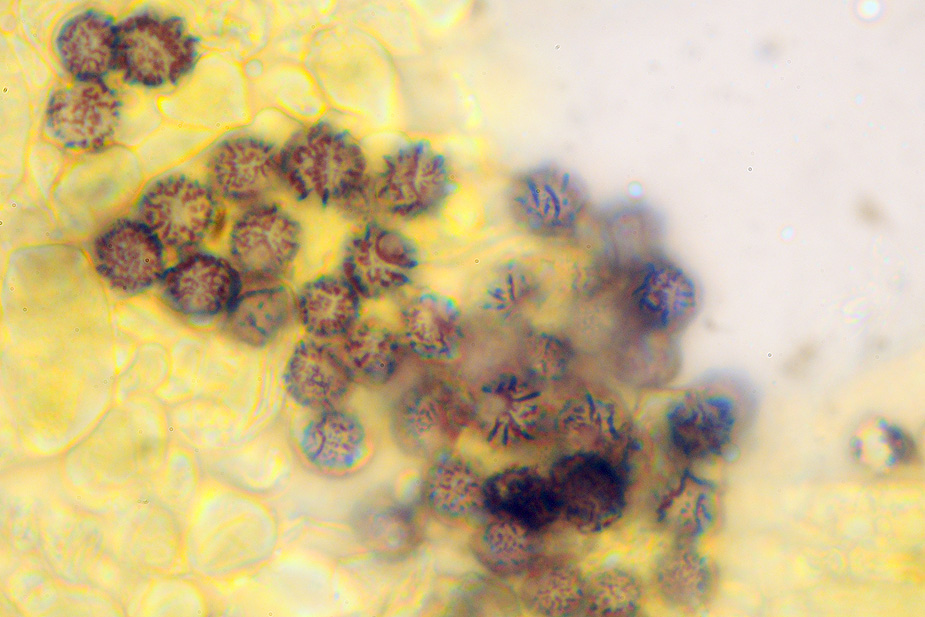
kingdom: Fungi
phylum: Basidiomycota
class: Agaricomycetes
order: Russulales
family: Russulaceae
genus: Russula
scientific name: Russula grata
